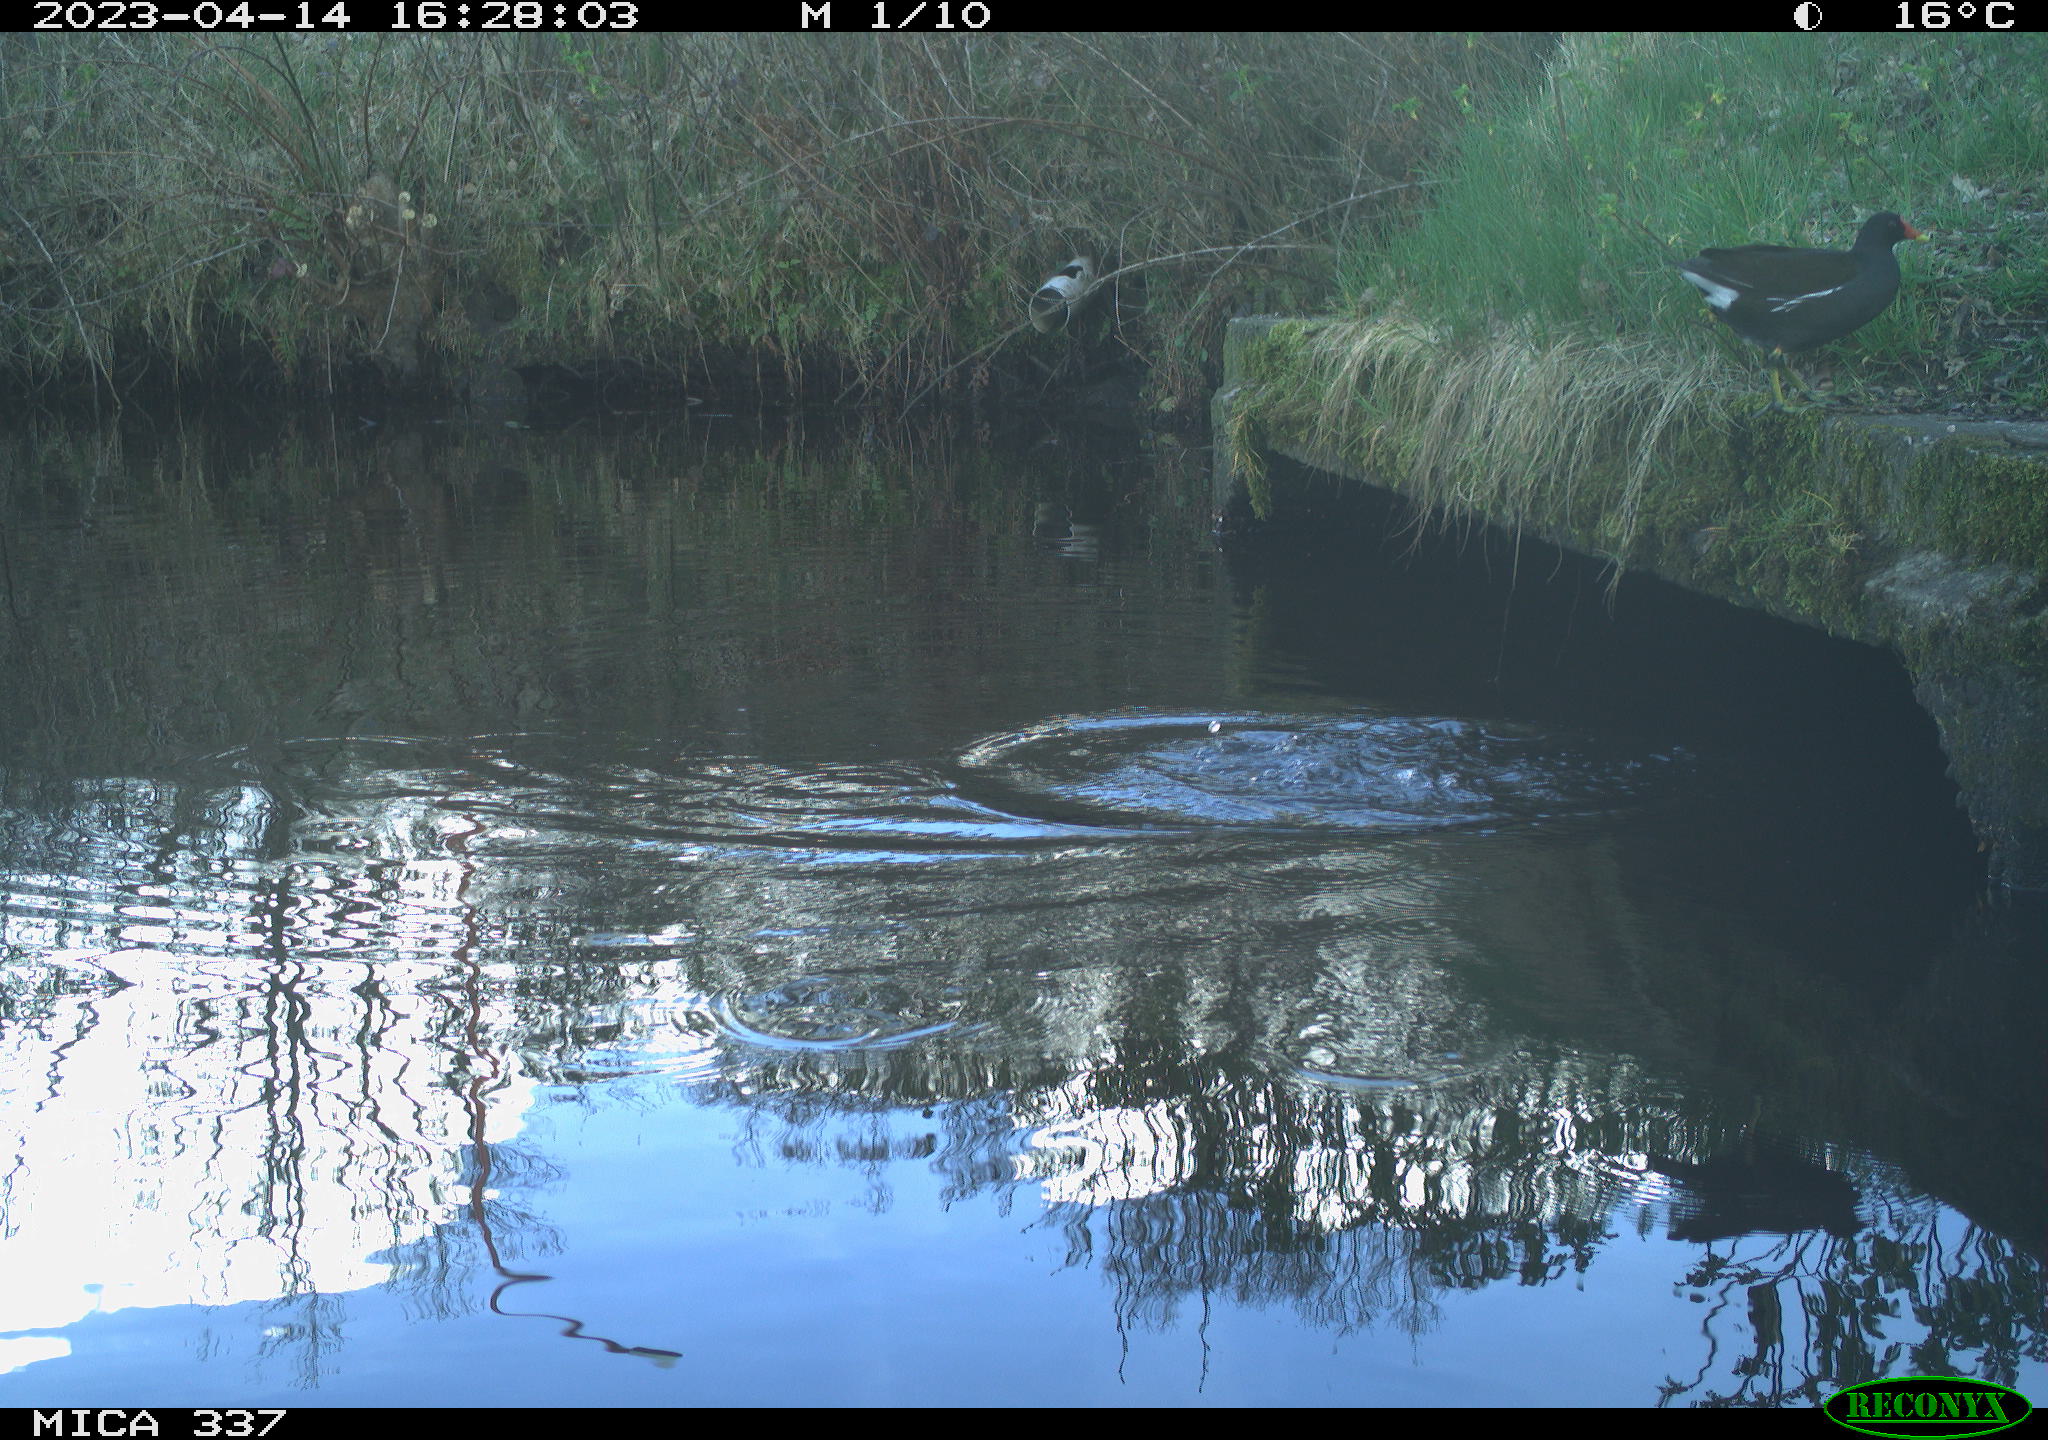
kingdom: Animalia
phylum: Chordata
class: Aves
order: Gruiformes
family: Rallidae
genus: Gallinula
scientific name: Gallinula chloropus
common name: Common moorhen
